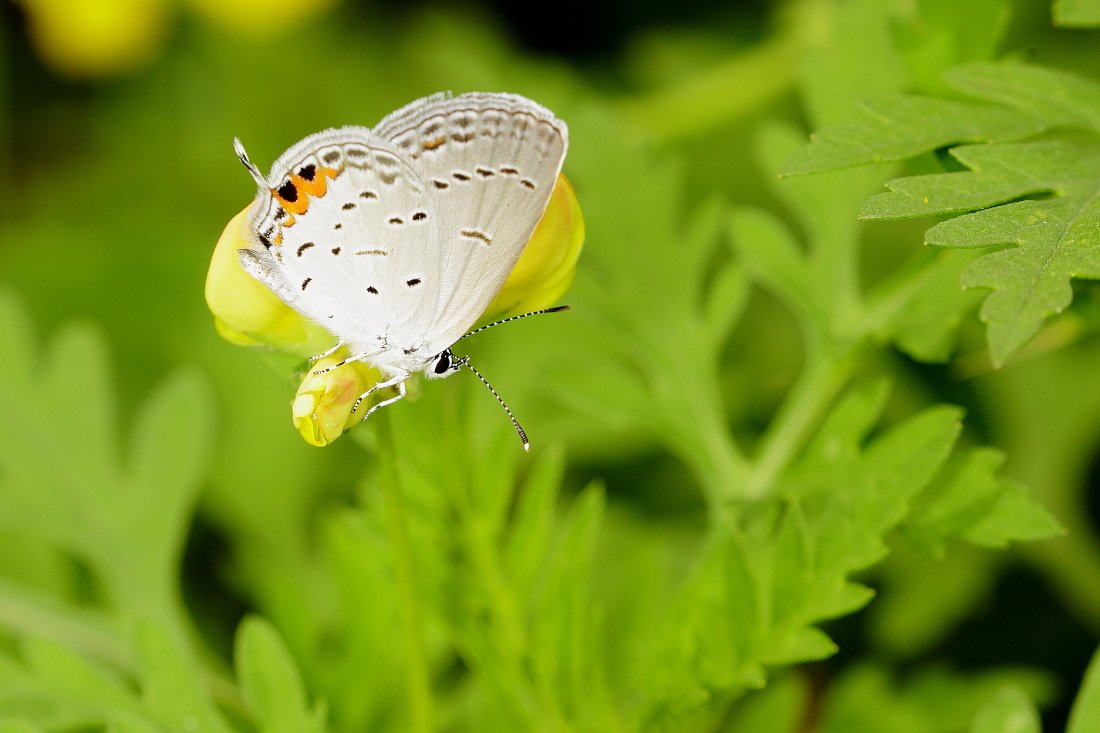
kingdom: Animalia
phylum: Arthropoda
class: Insecta
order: Lepidoptera
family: Lycaenidae
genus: Elkalyce
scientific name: Elkalyce comyntas
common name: Eastern Tailed-Blue
